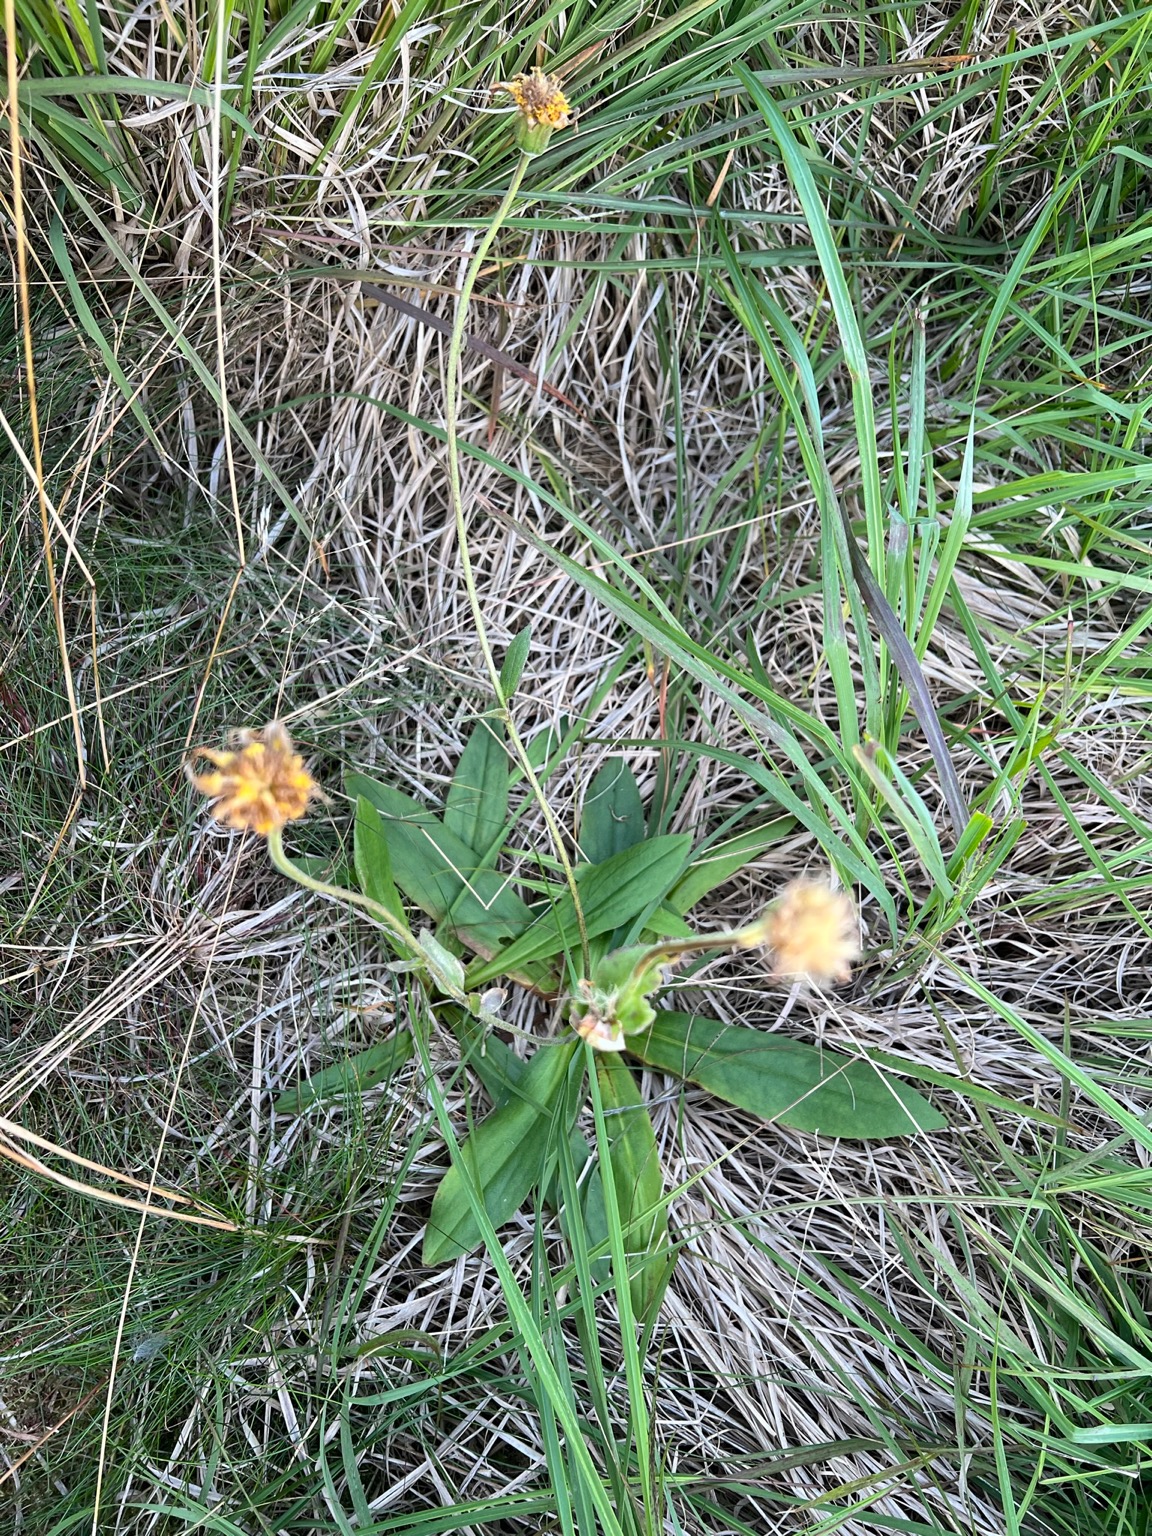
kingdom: Plantae
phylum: Tracheophyta
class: Magnoliopsida
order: Asterales
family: Asteraceae
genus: Arnica
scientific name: Arnica montana
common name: Guldblomme
